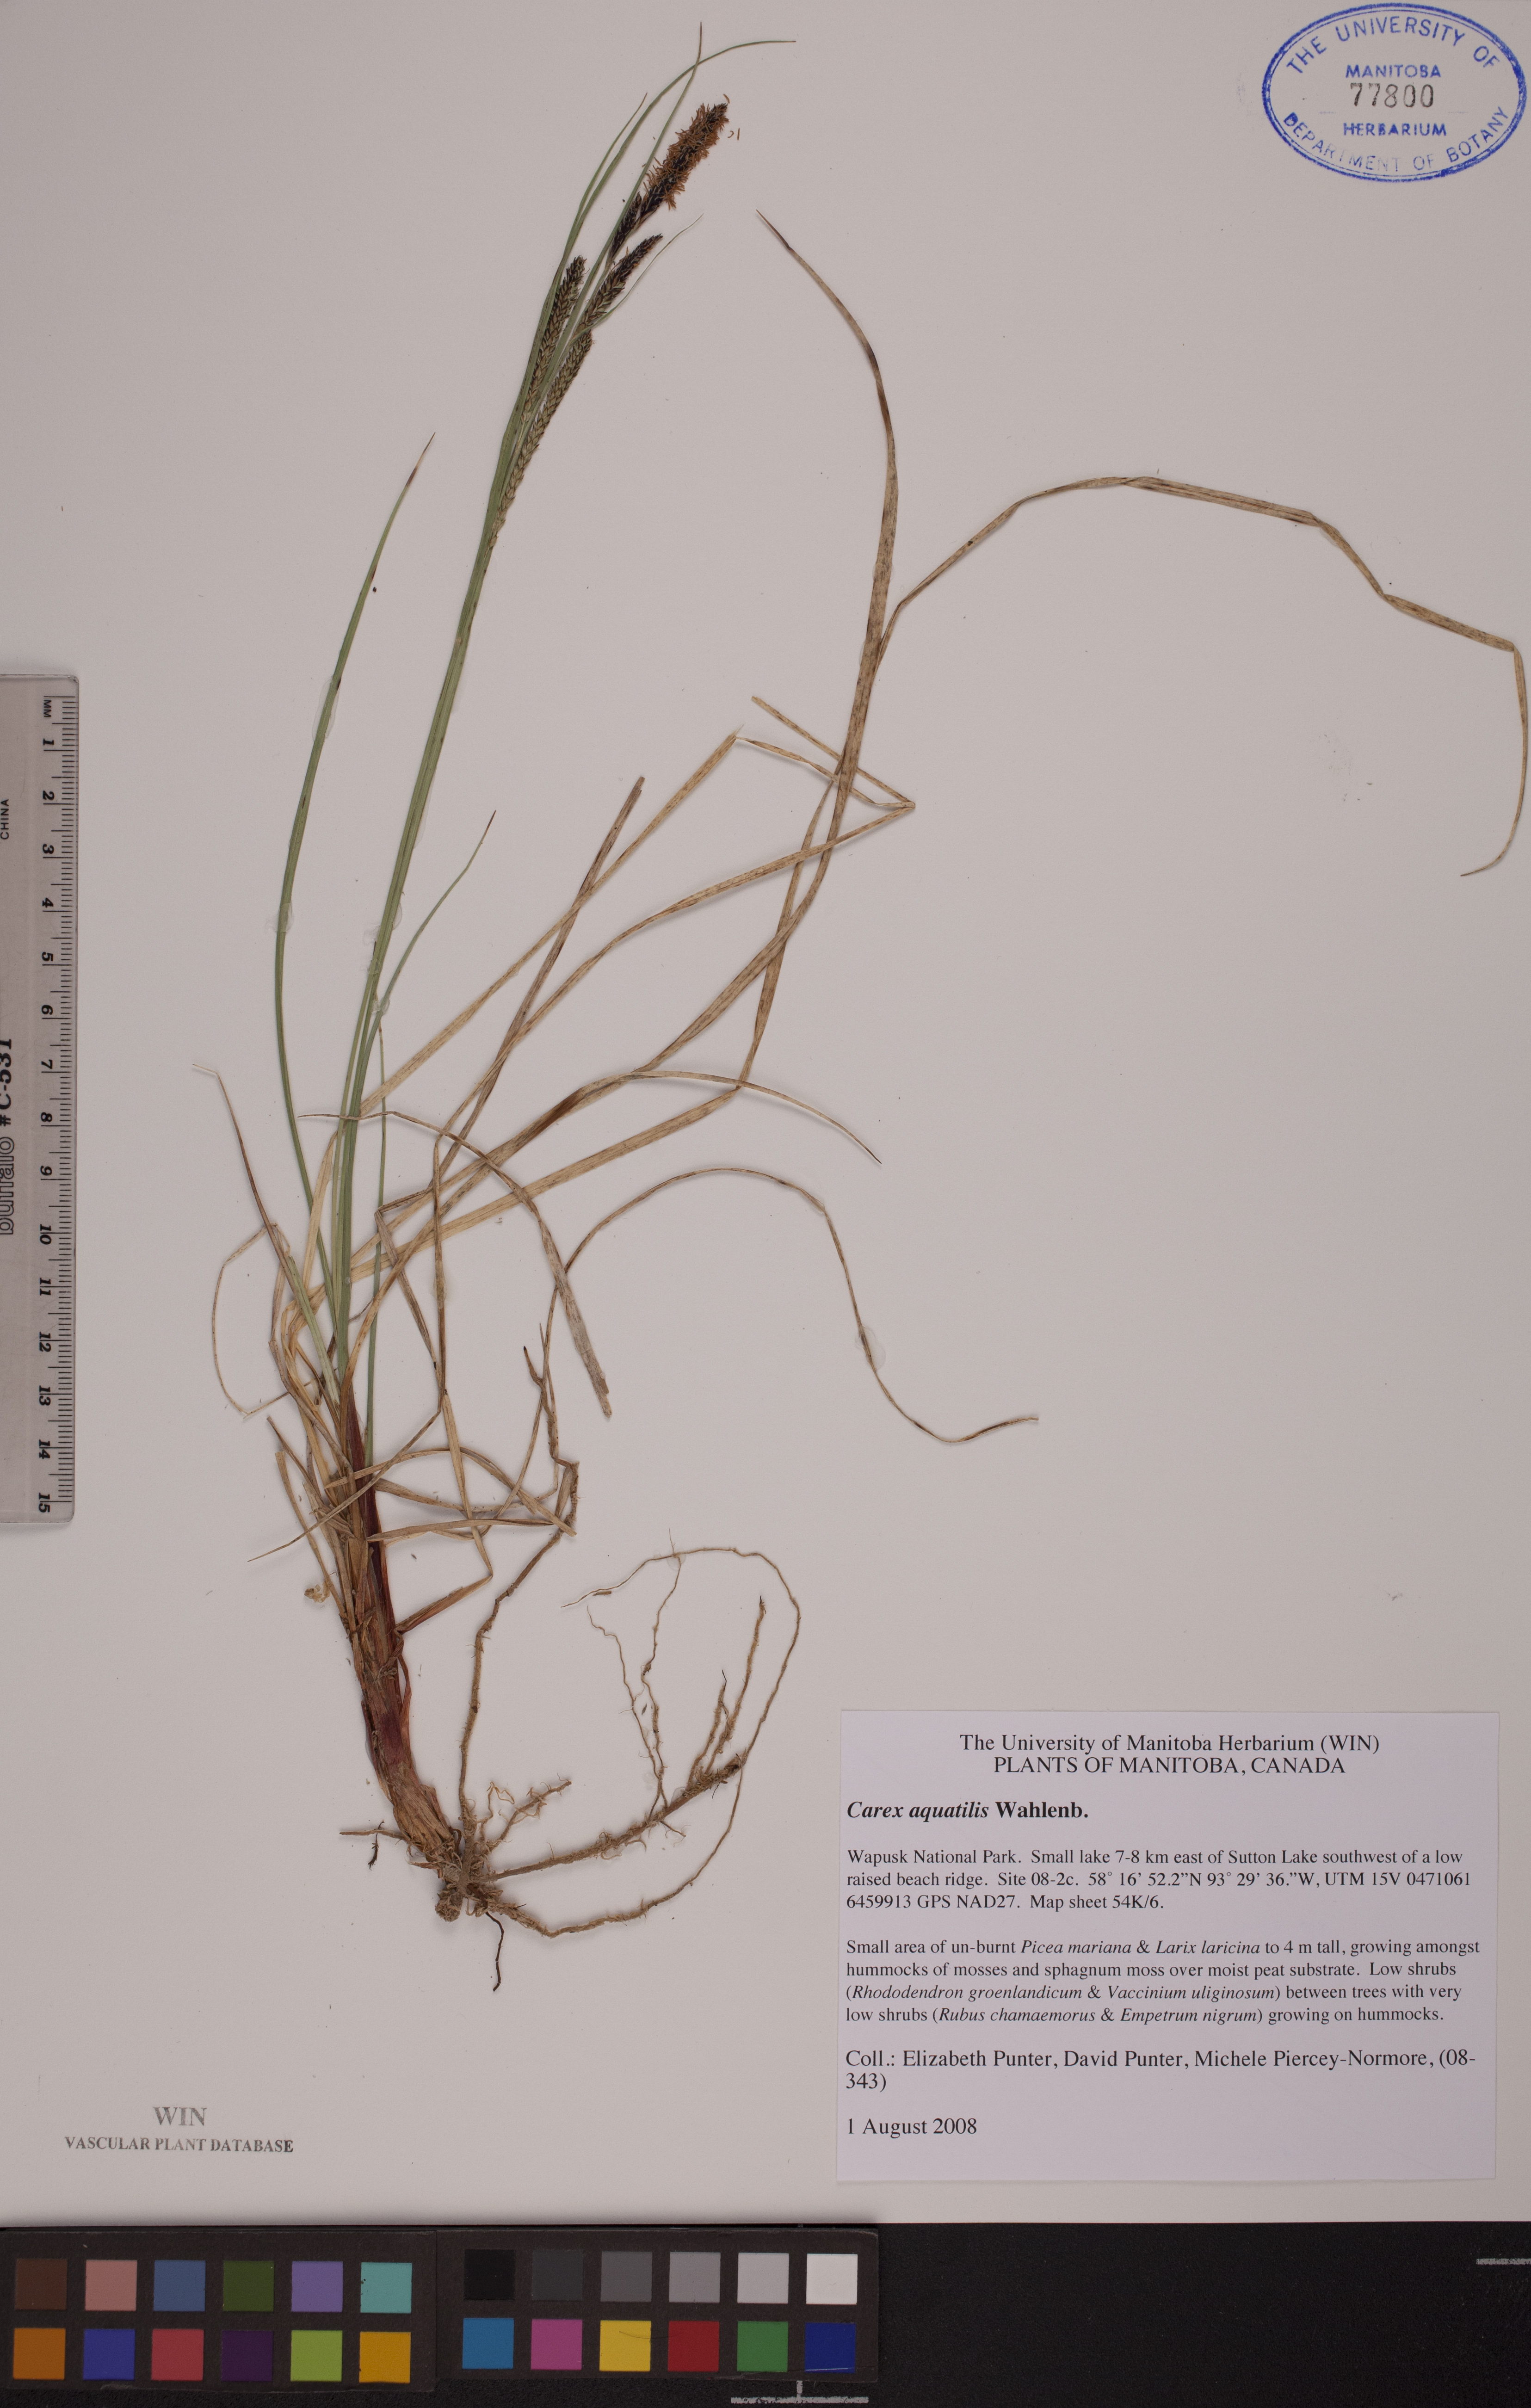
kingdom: Plantae
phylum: Tracheophyta
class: Liliopsida
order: Poales
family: Cyperaceae
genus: Carex
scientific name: Carex aquatilis
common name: Water sedge
